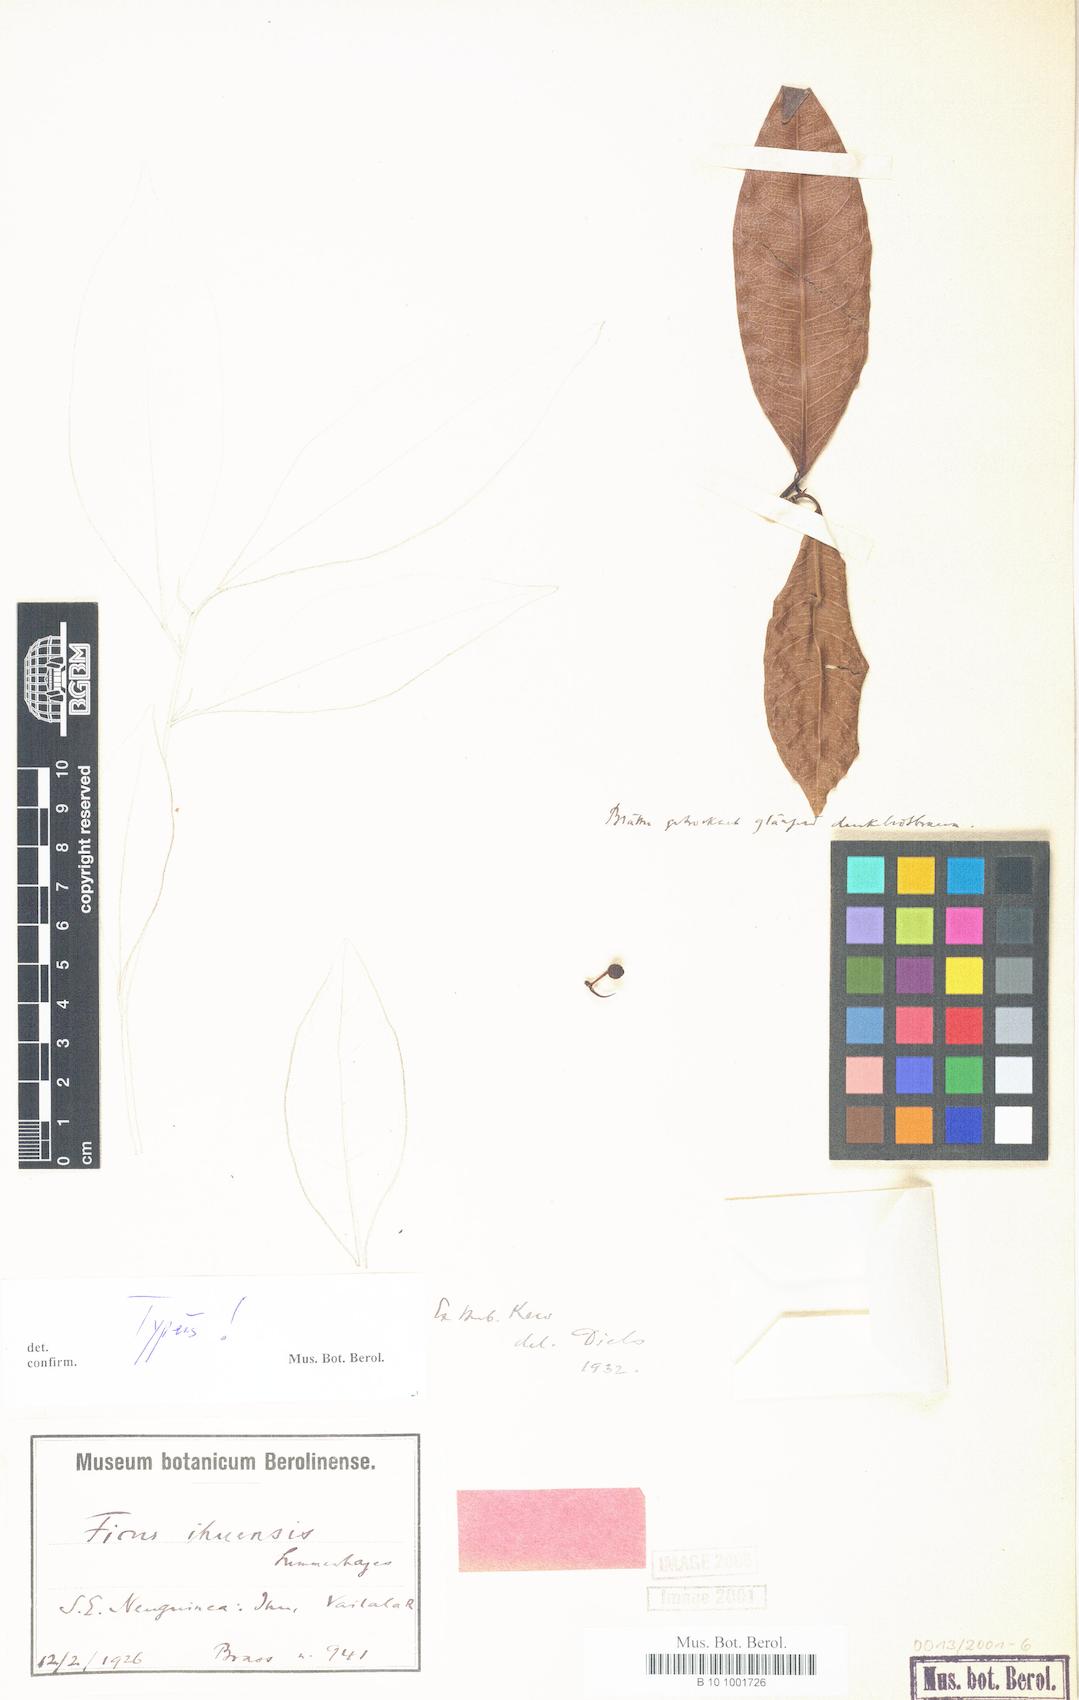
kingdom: Plantae
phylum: Tracheophyta
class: Magnoliopsida
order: Rosales
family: Moraceae
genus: Ficus
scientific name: Ficus ihuensis
